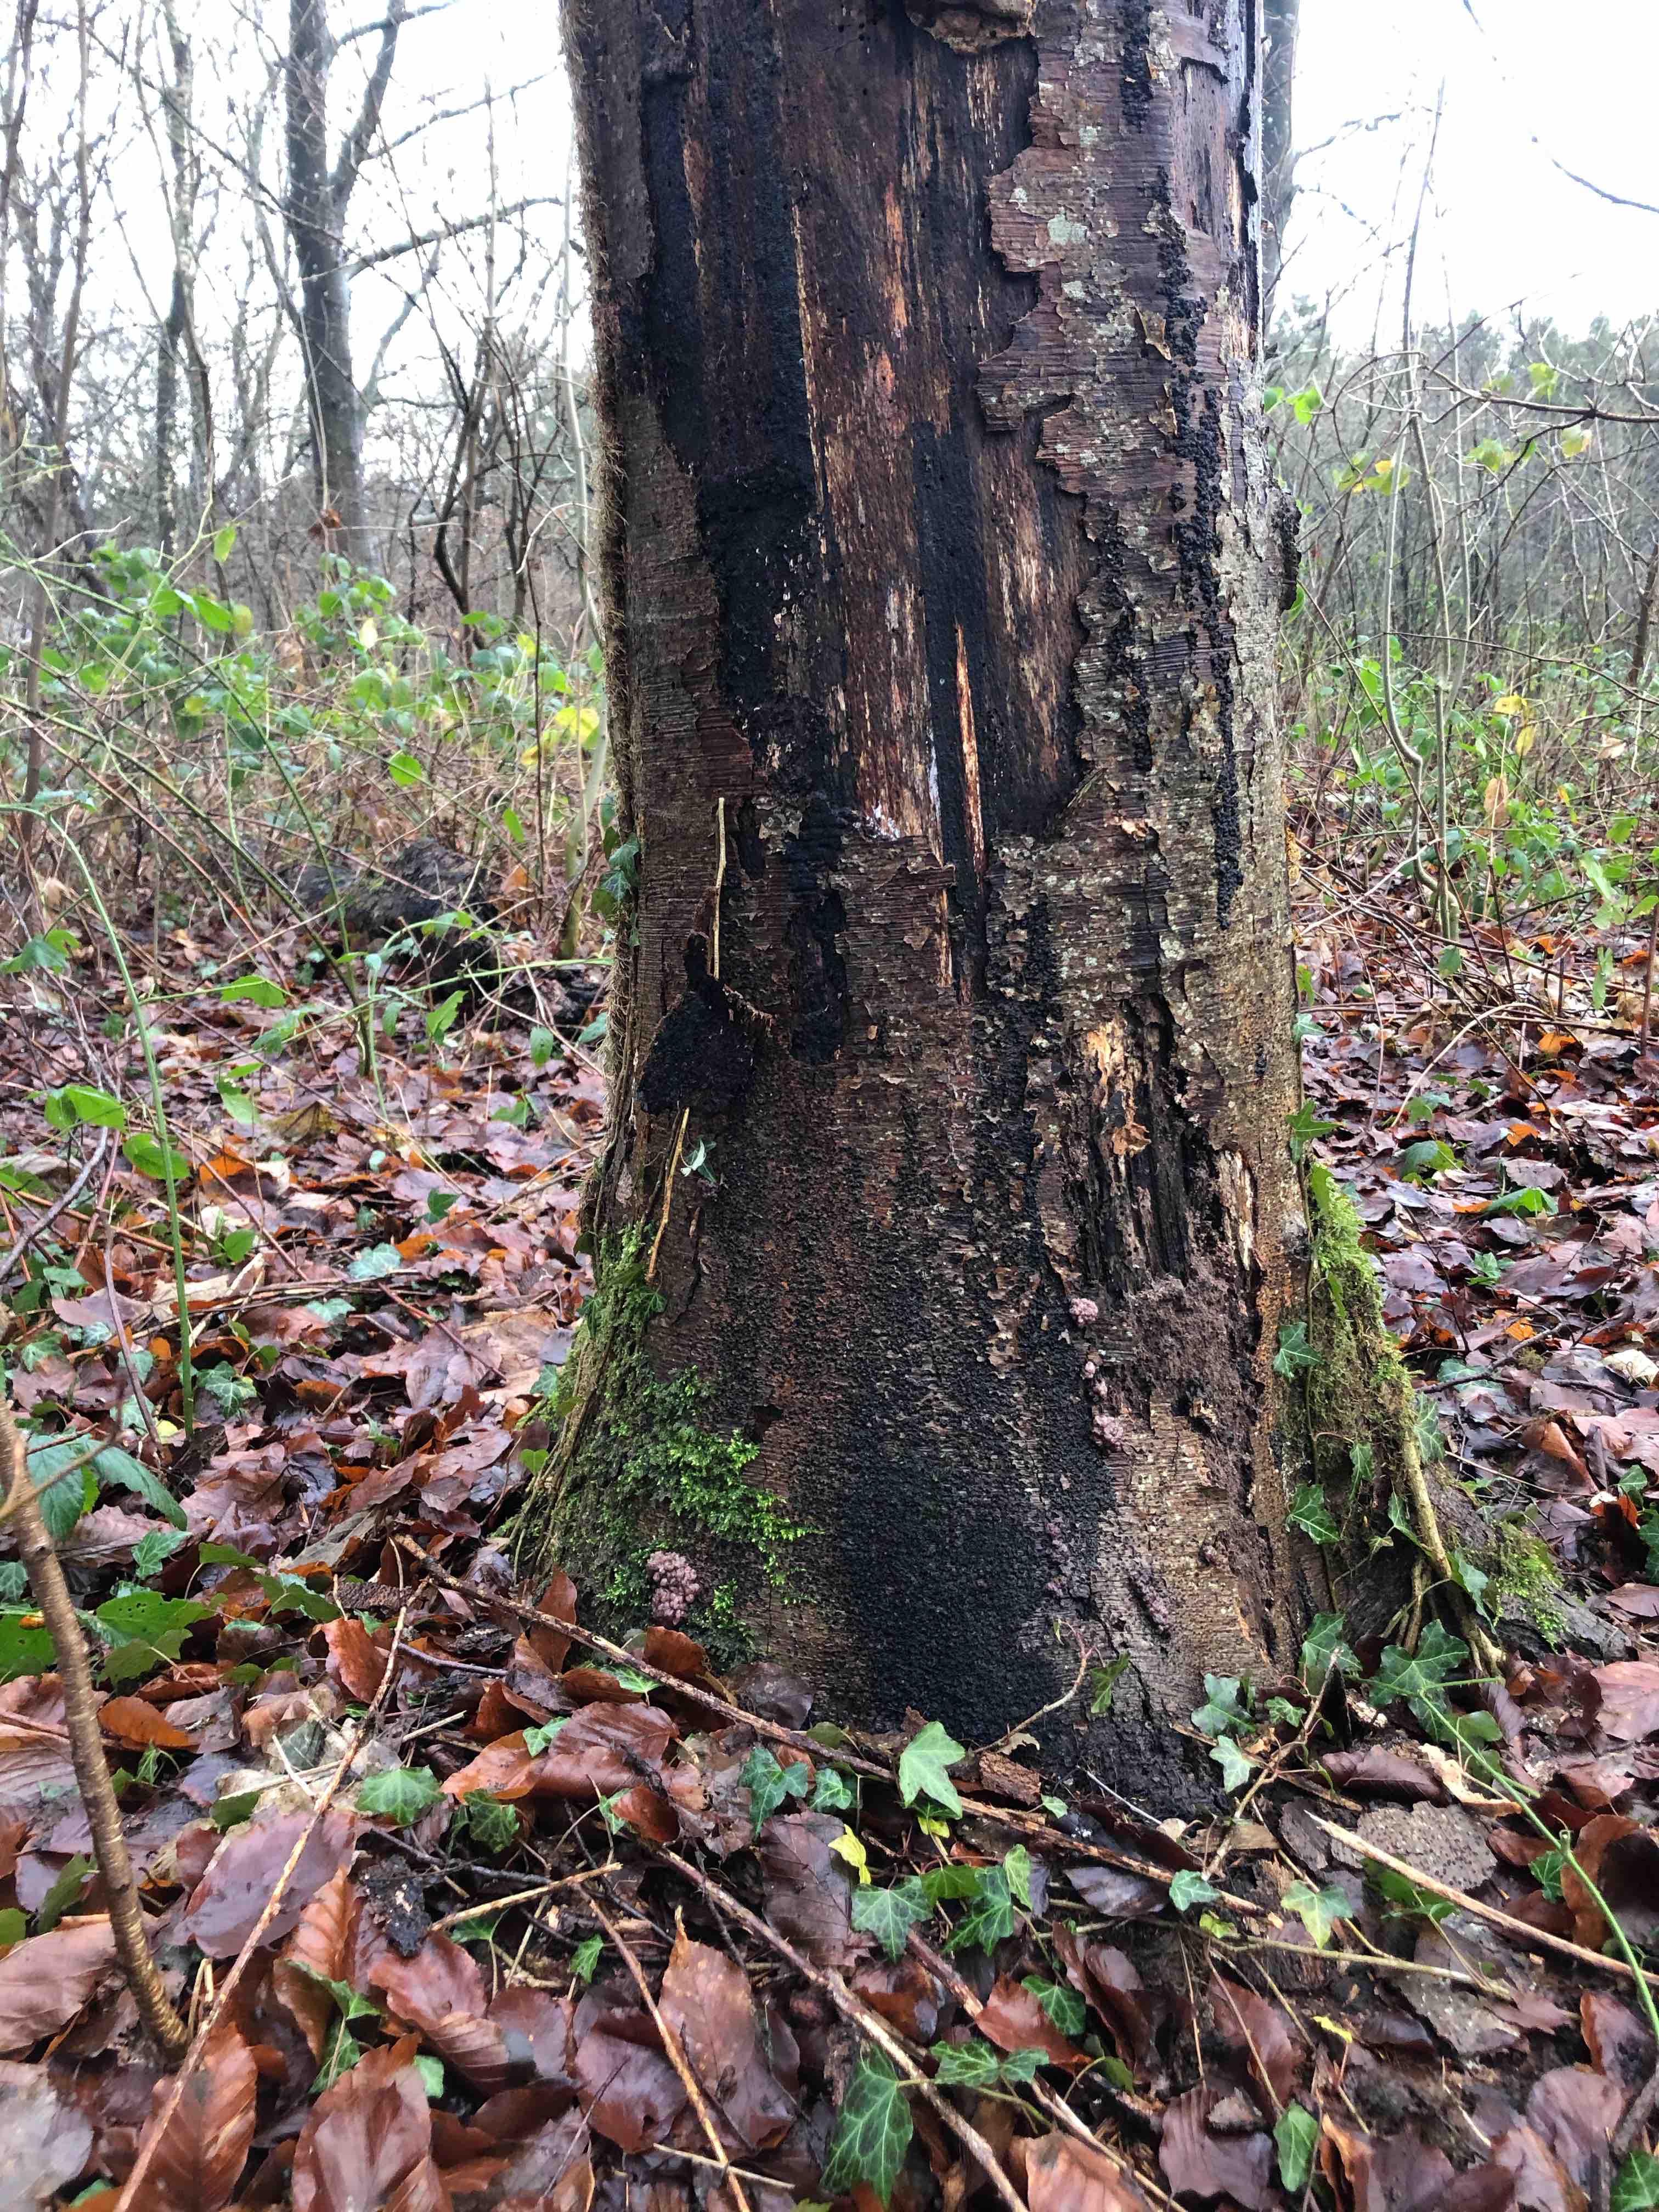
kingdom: Fungi
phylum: Ascomycota
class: Leotiomycetes
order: Helotiales
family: Gelatinodiscaceae
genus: Ascocoryne
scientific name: Ascocoryne sarcoides
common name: rødlilla sejskive
